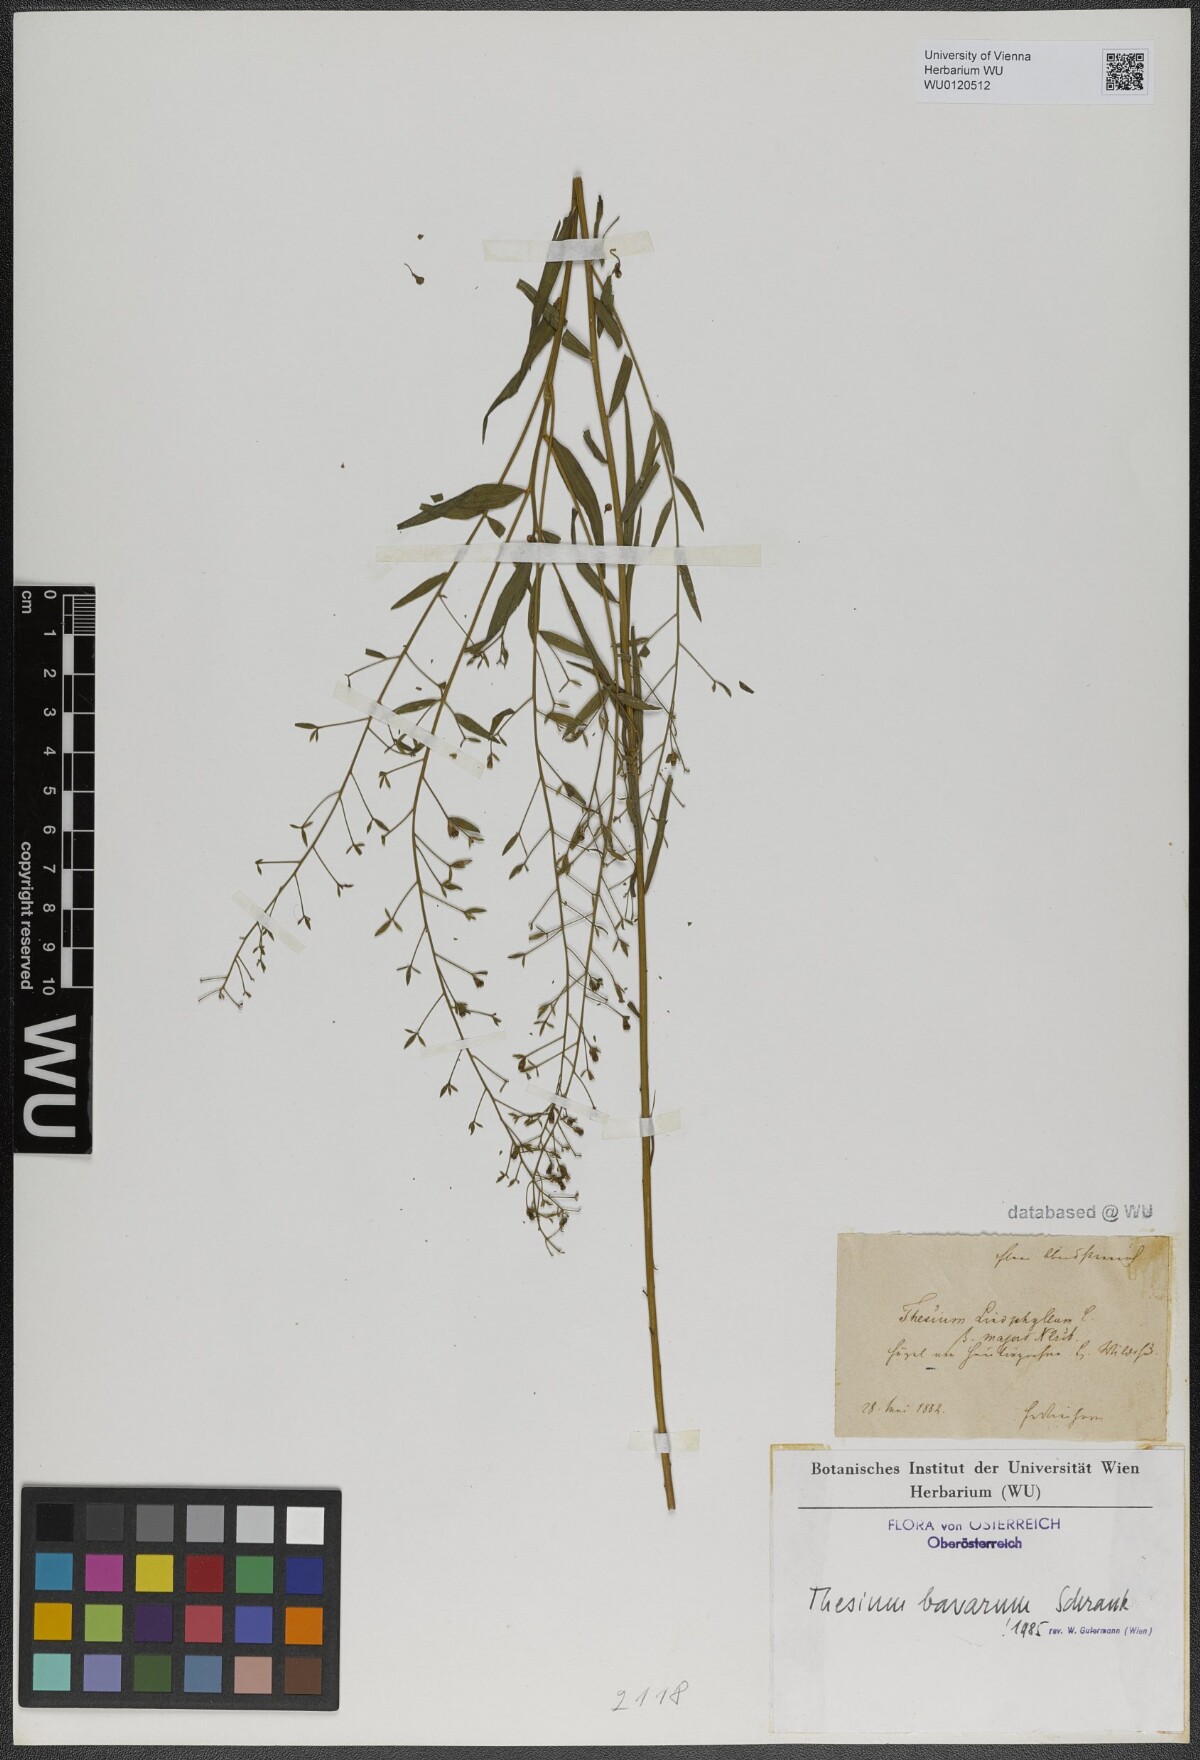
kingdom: Plantae
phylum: Tracheophyta
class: Magnoliopsida
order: Santalales
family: Thesiaceae
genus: Thesium
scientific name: Thesium bavarum
